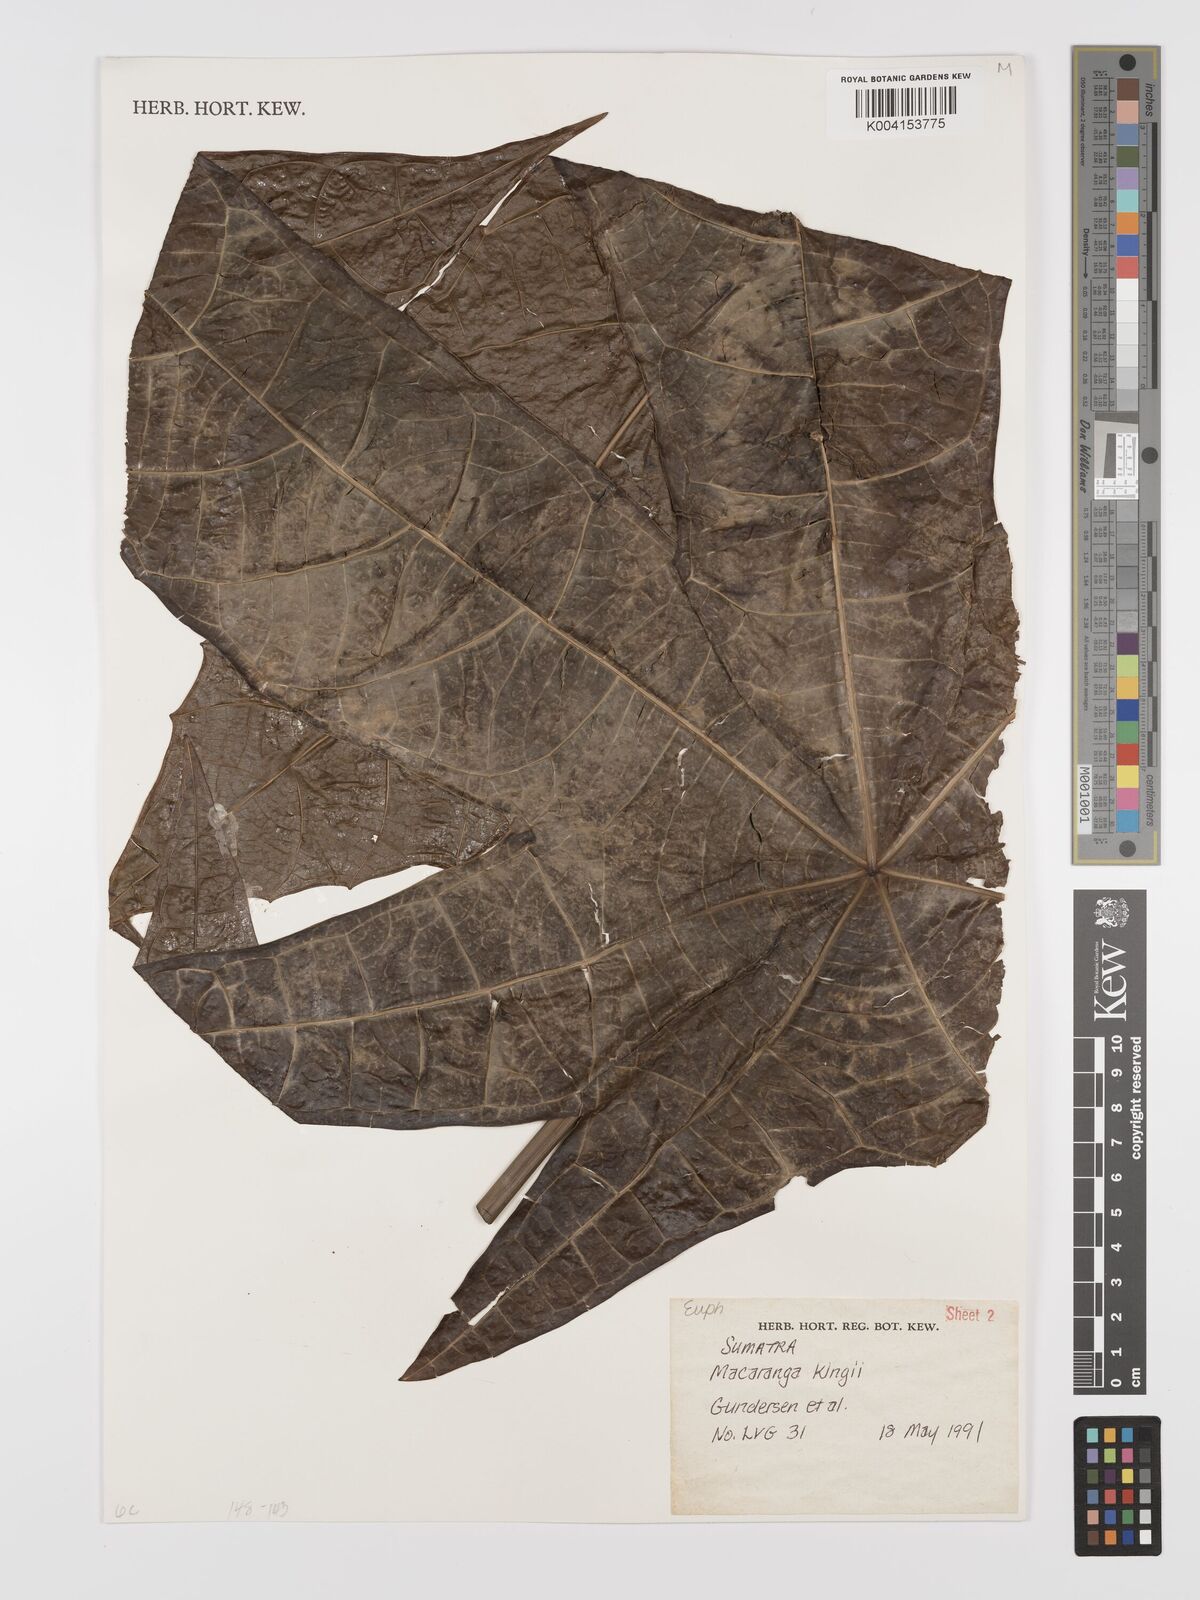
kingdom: Plantae
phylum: Tracheophyta
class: Magnoliopsida
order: Malpighiales
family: Euphorbiaceae
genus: Macaranga
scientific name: Macaranga kingii
